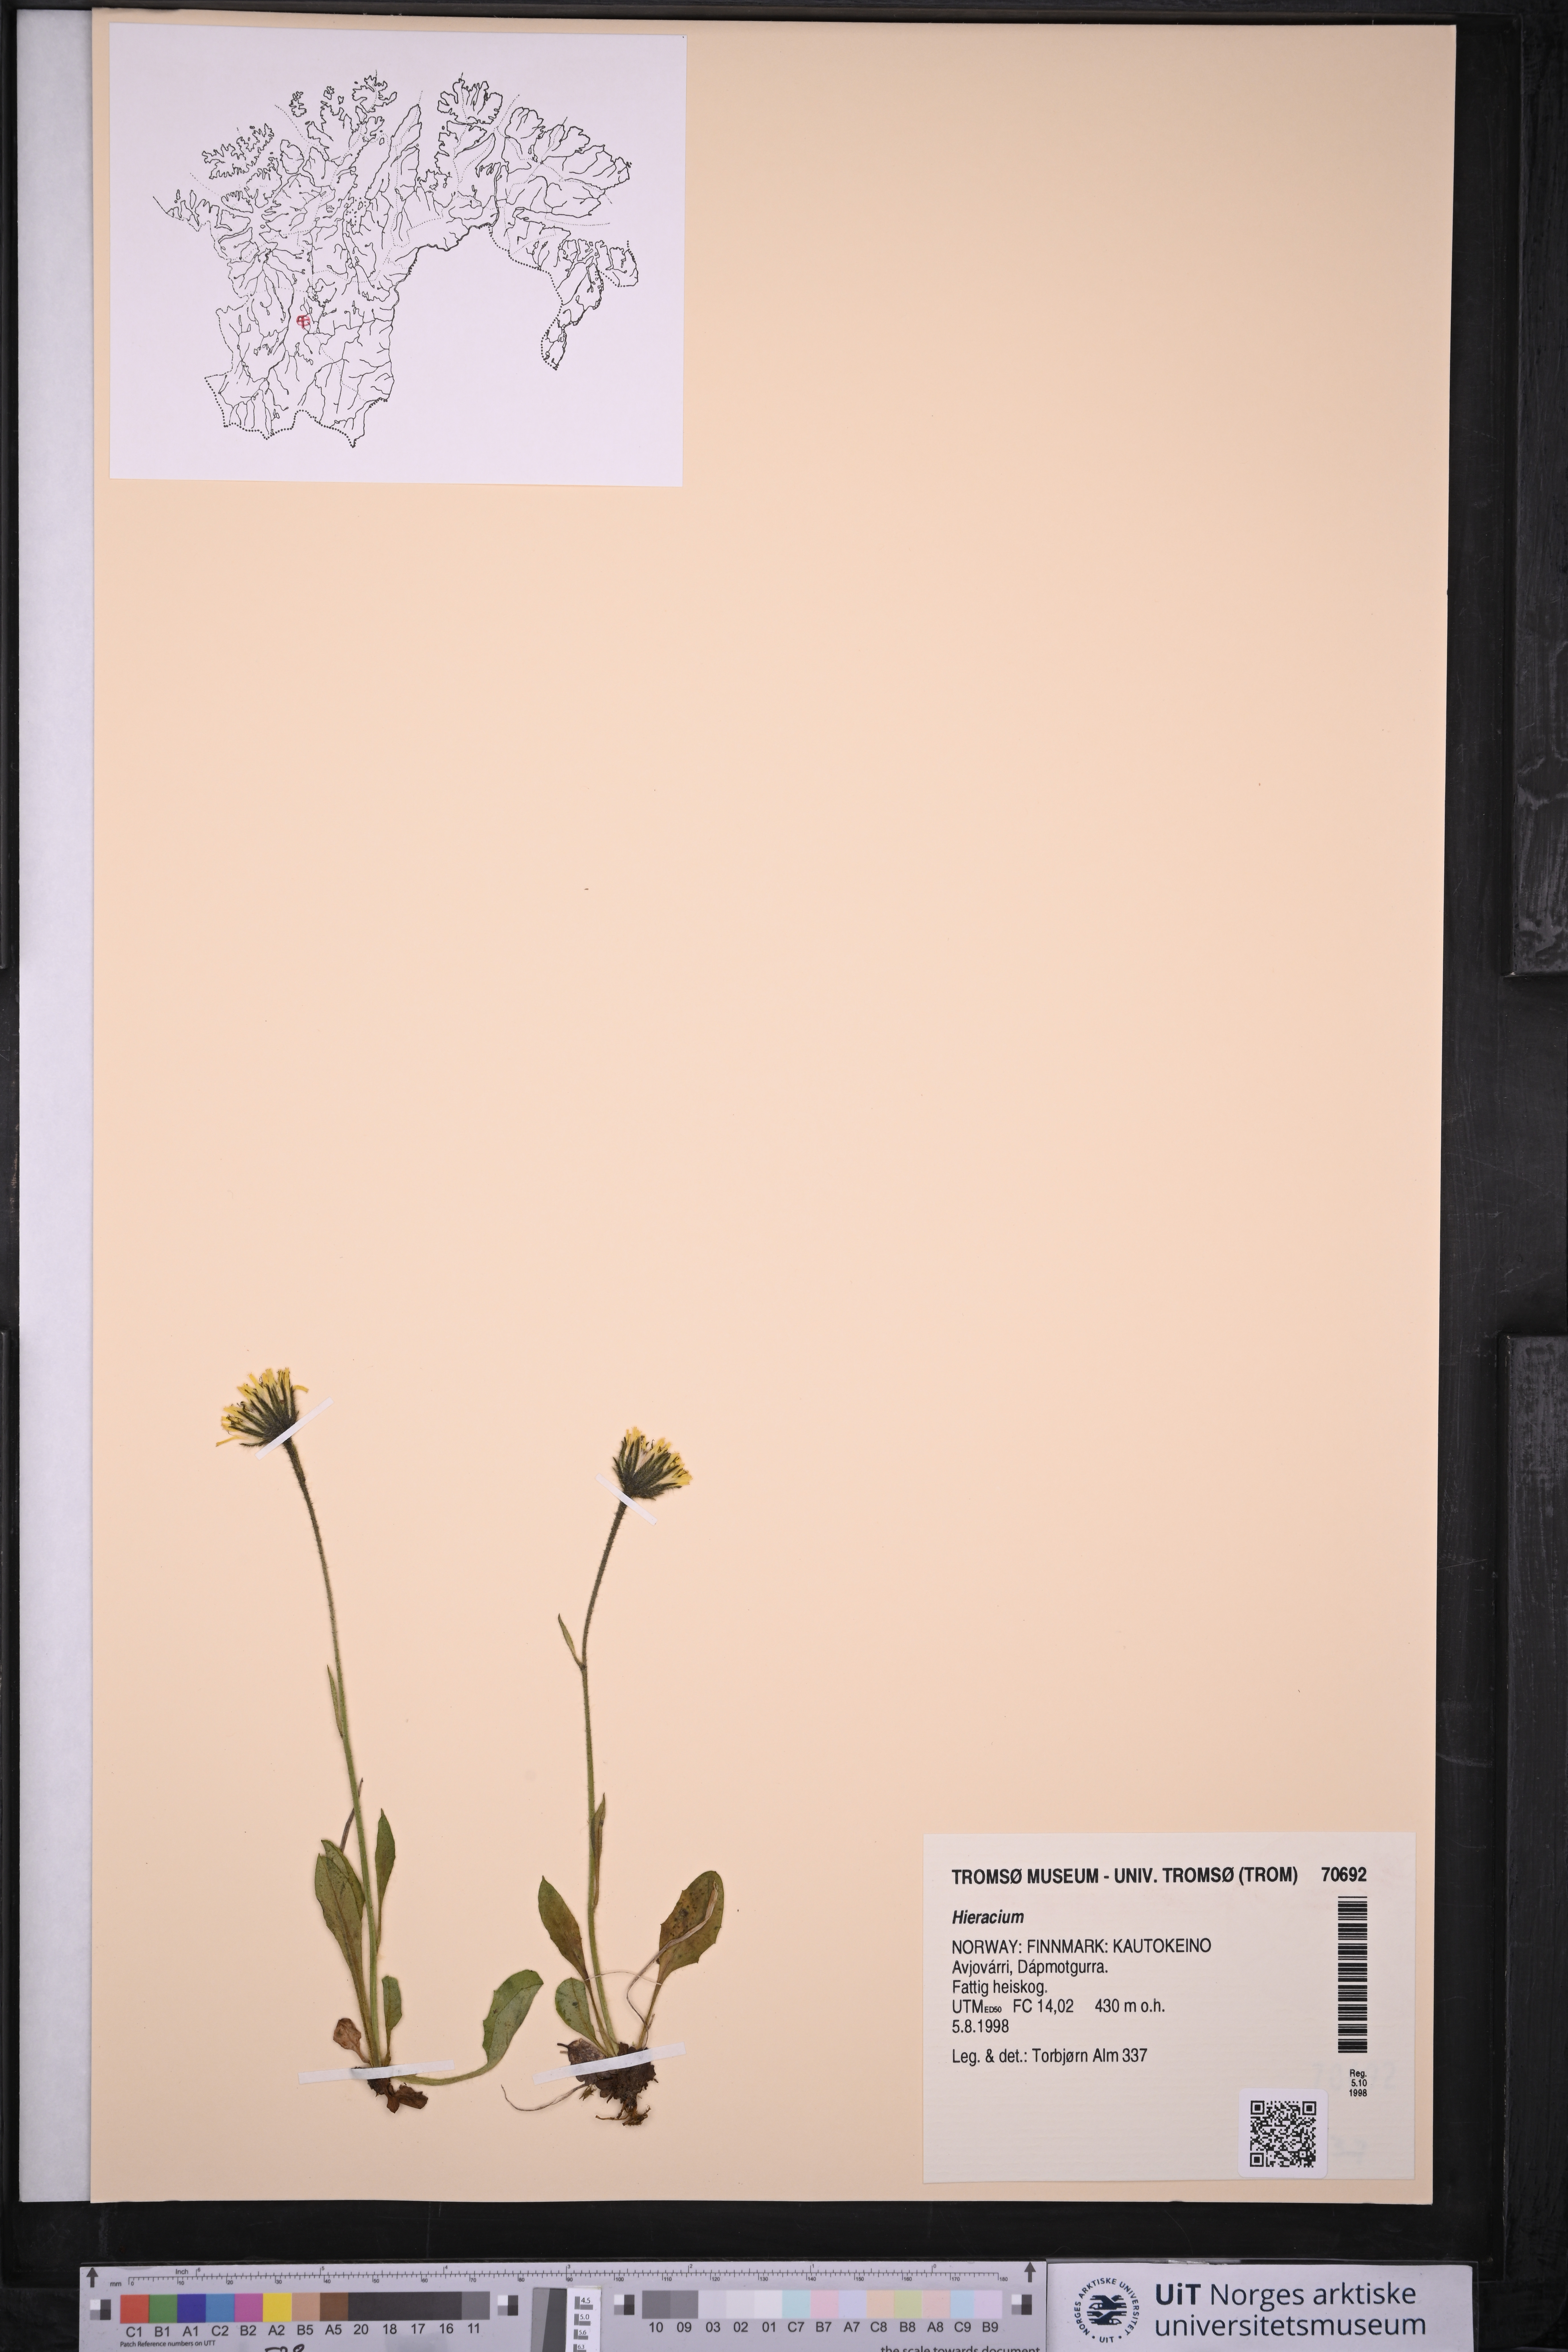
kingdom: Plantae
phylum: Tracheophyta
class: Magnoliopsida
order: Asterales
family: Asteraceae
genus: Hieracium
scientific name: Hieracium
